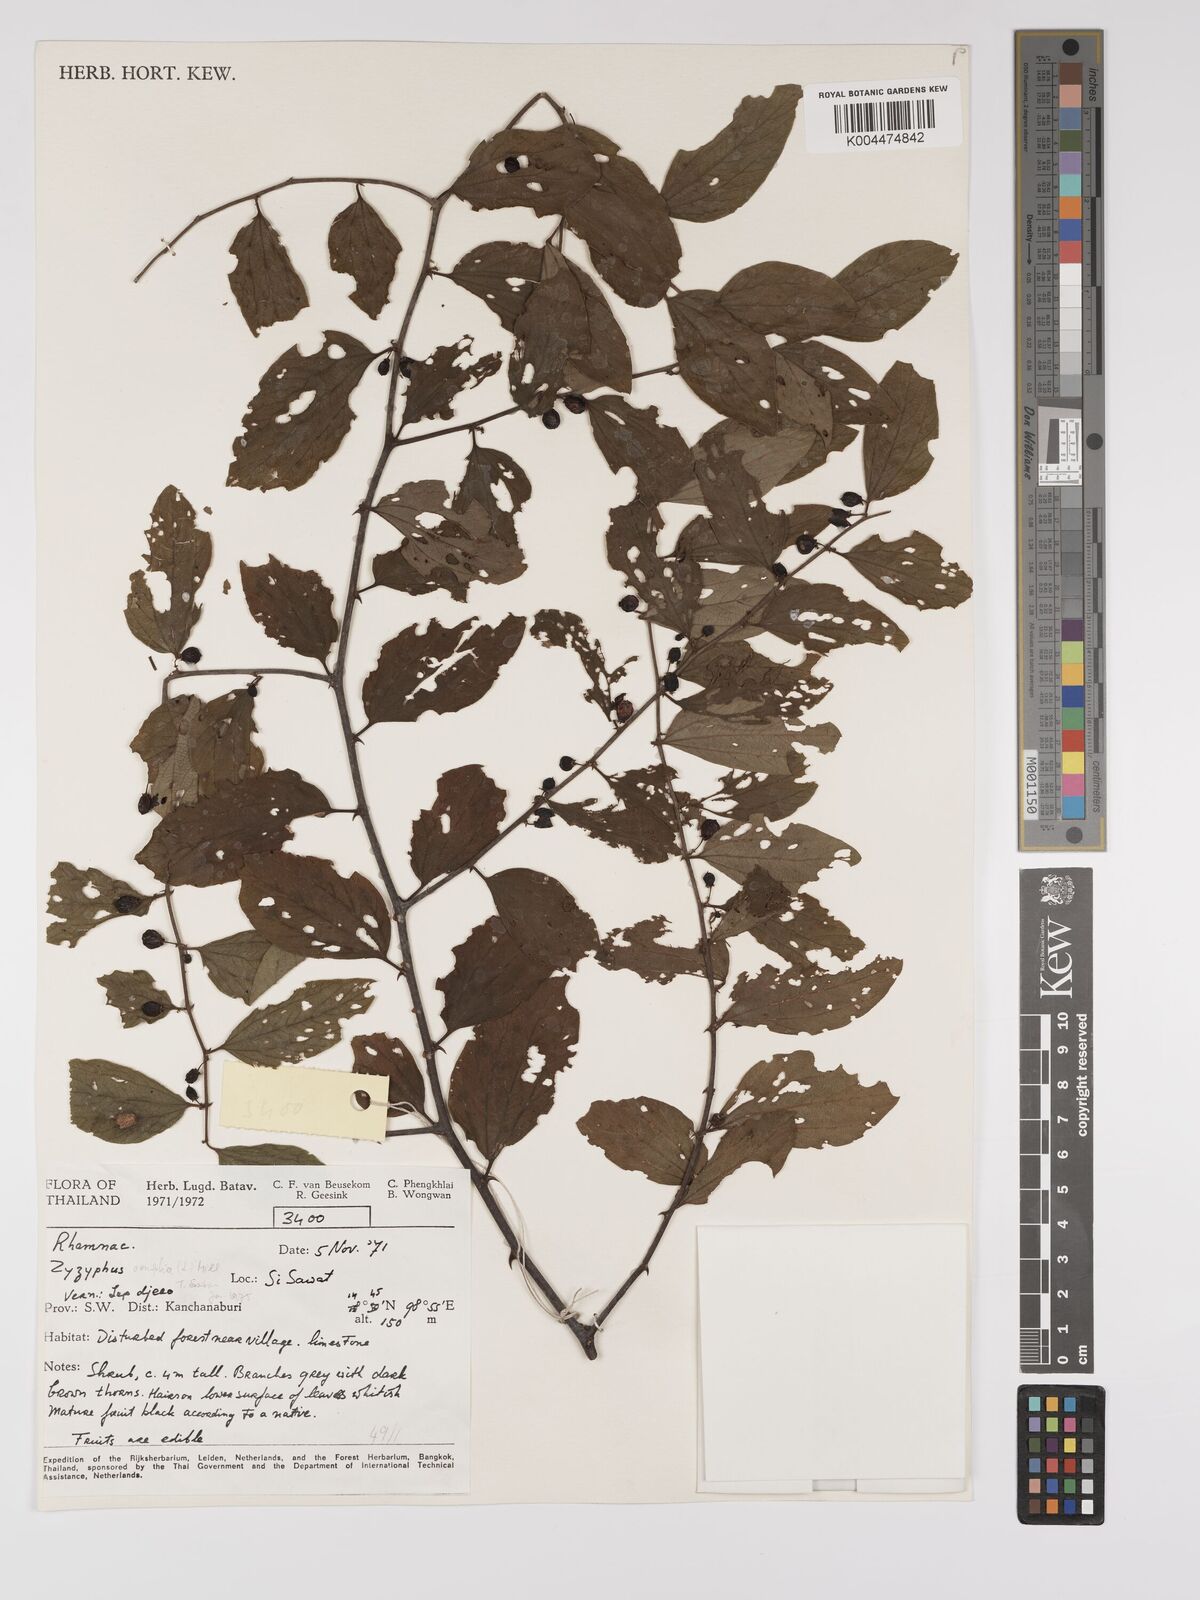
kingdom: Plantae
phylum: Tracheophyta
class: Magnoliopsida
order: Rosales
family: Rhamnaceae
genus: Ziziphus
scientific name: Ziziphus oenopolia
